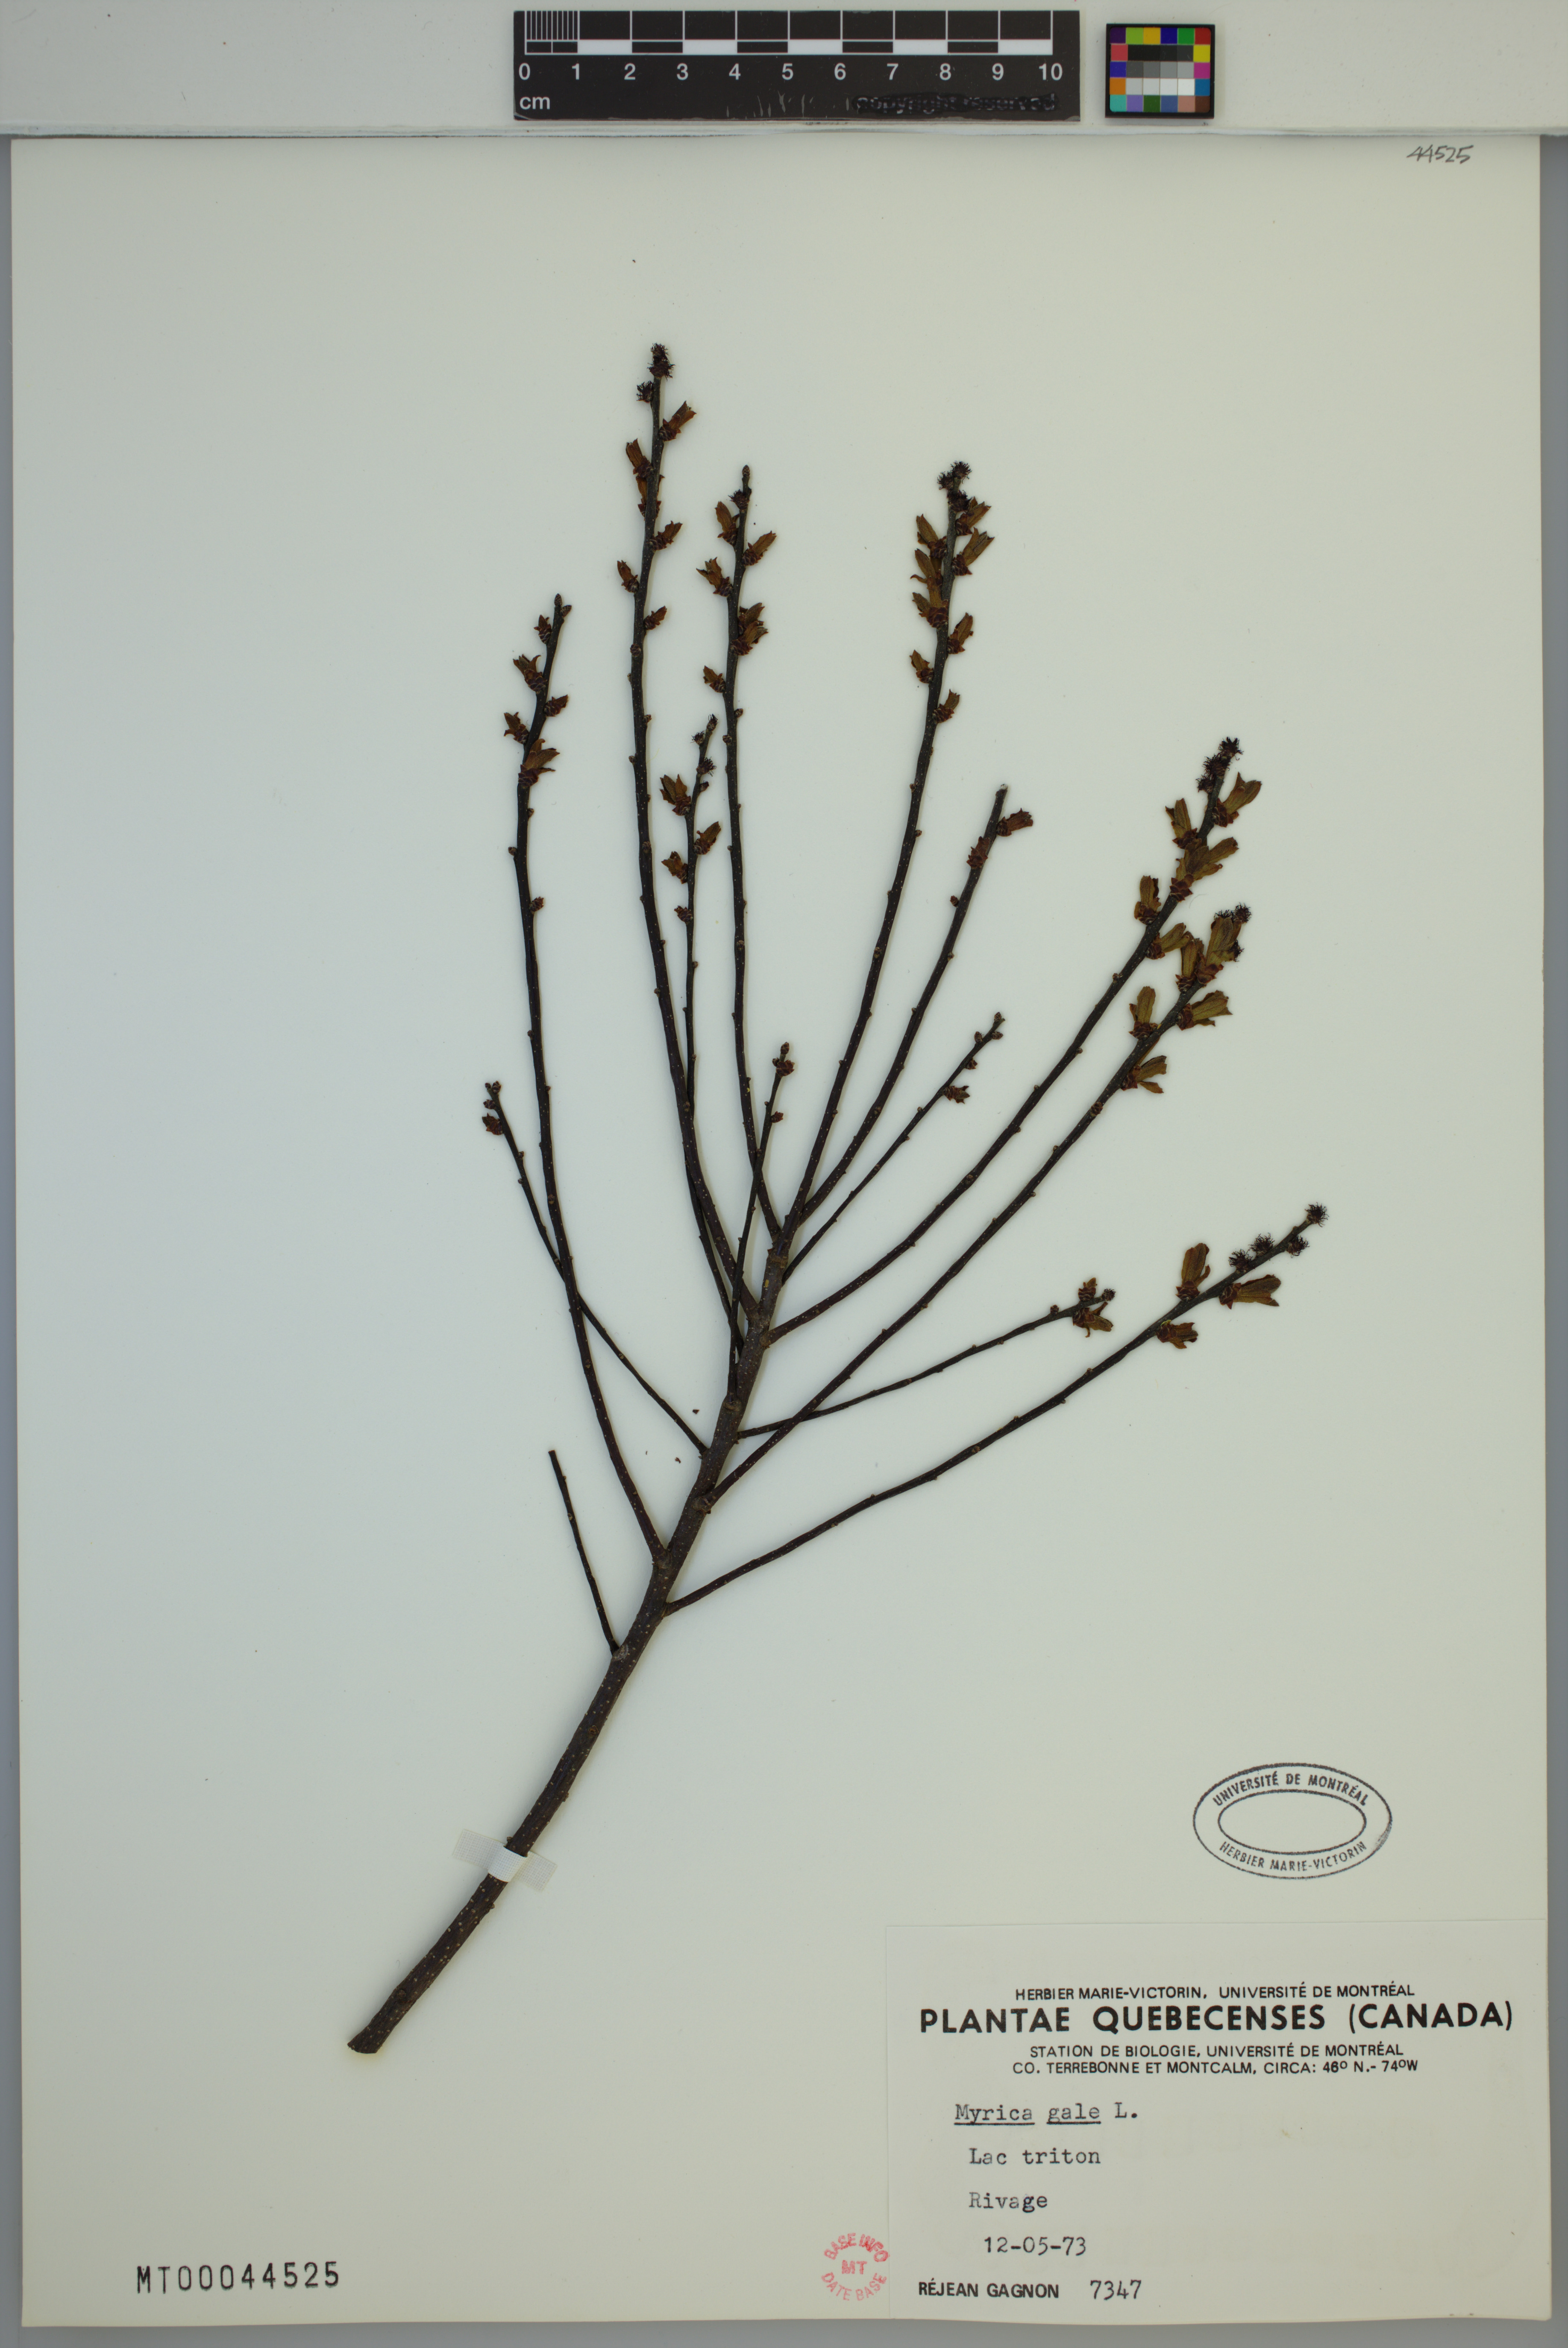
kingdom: Plantae
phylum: Tracheophyta
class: Magnoliopsida
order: Fagales
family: Myricaceae
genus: Myrica
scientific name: Myrica gale
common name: Sweet gale
